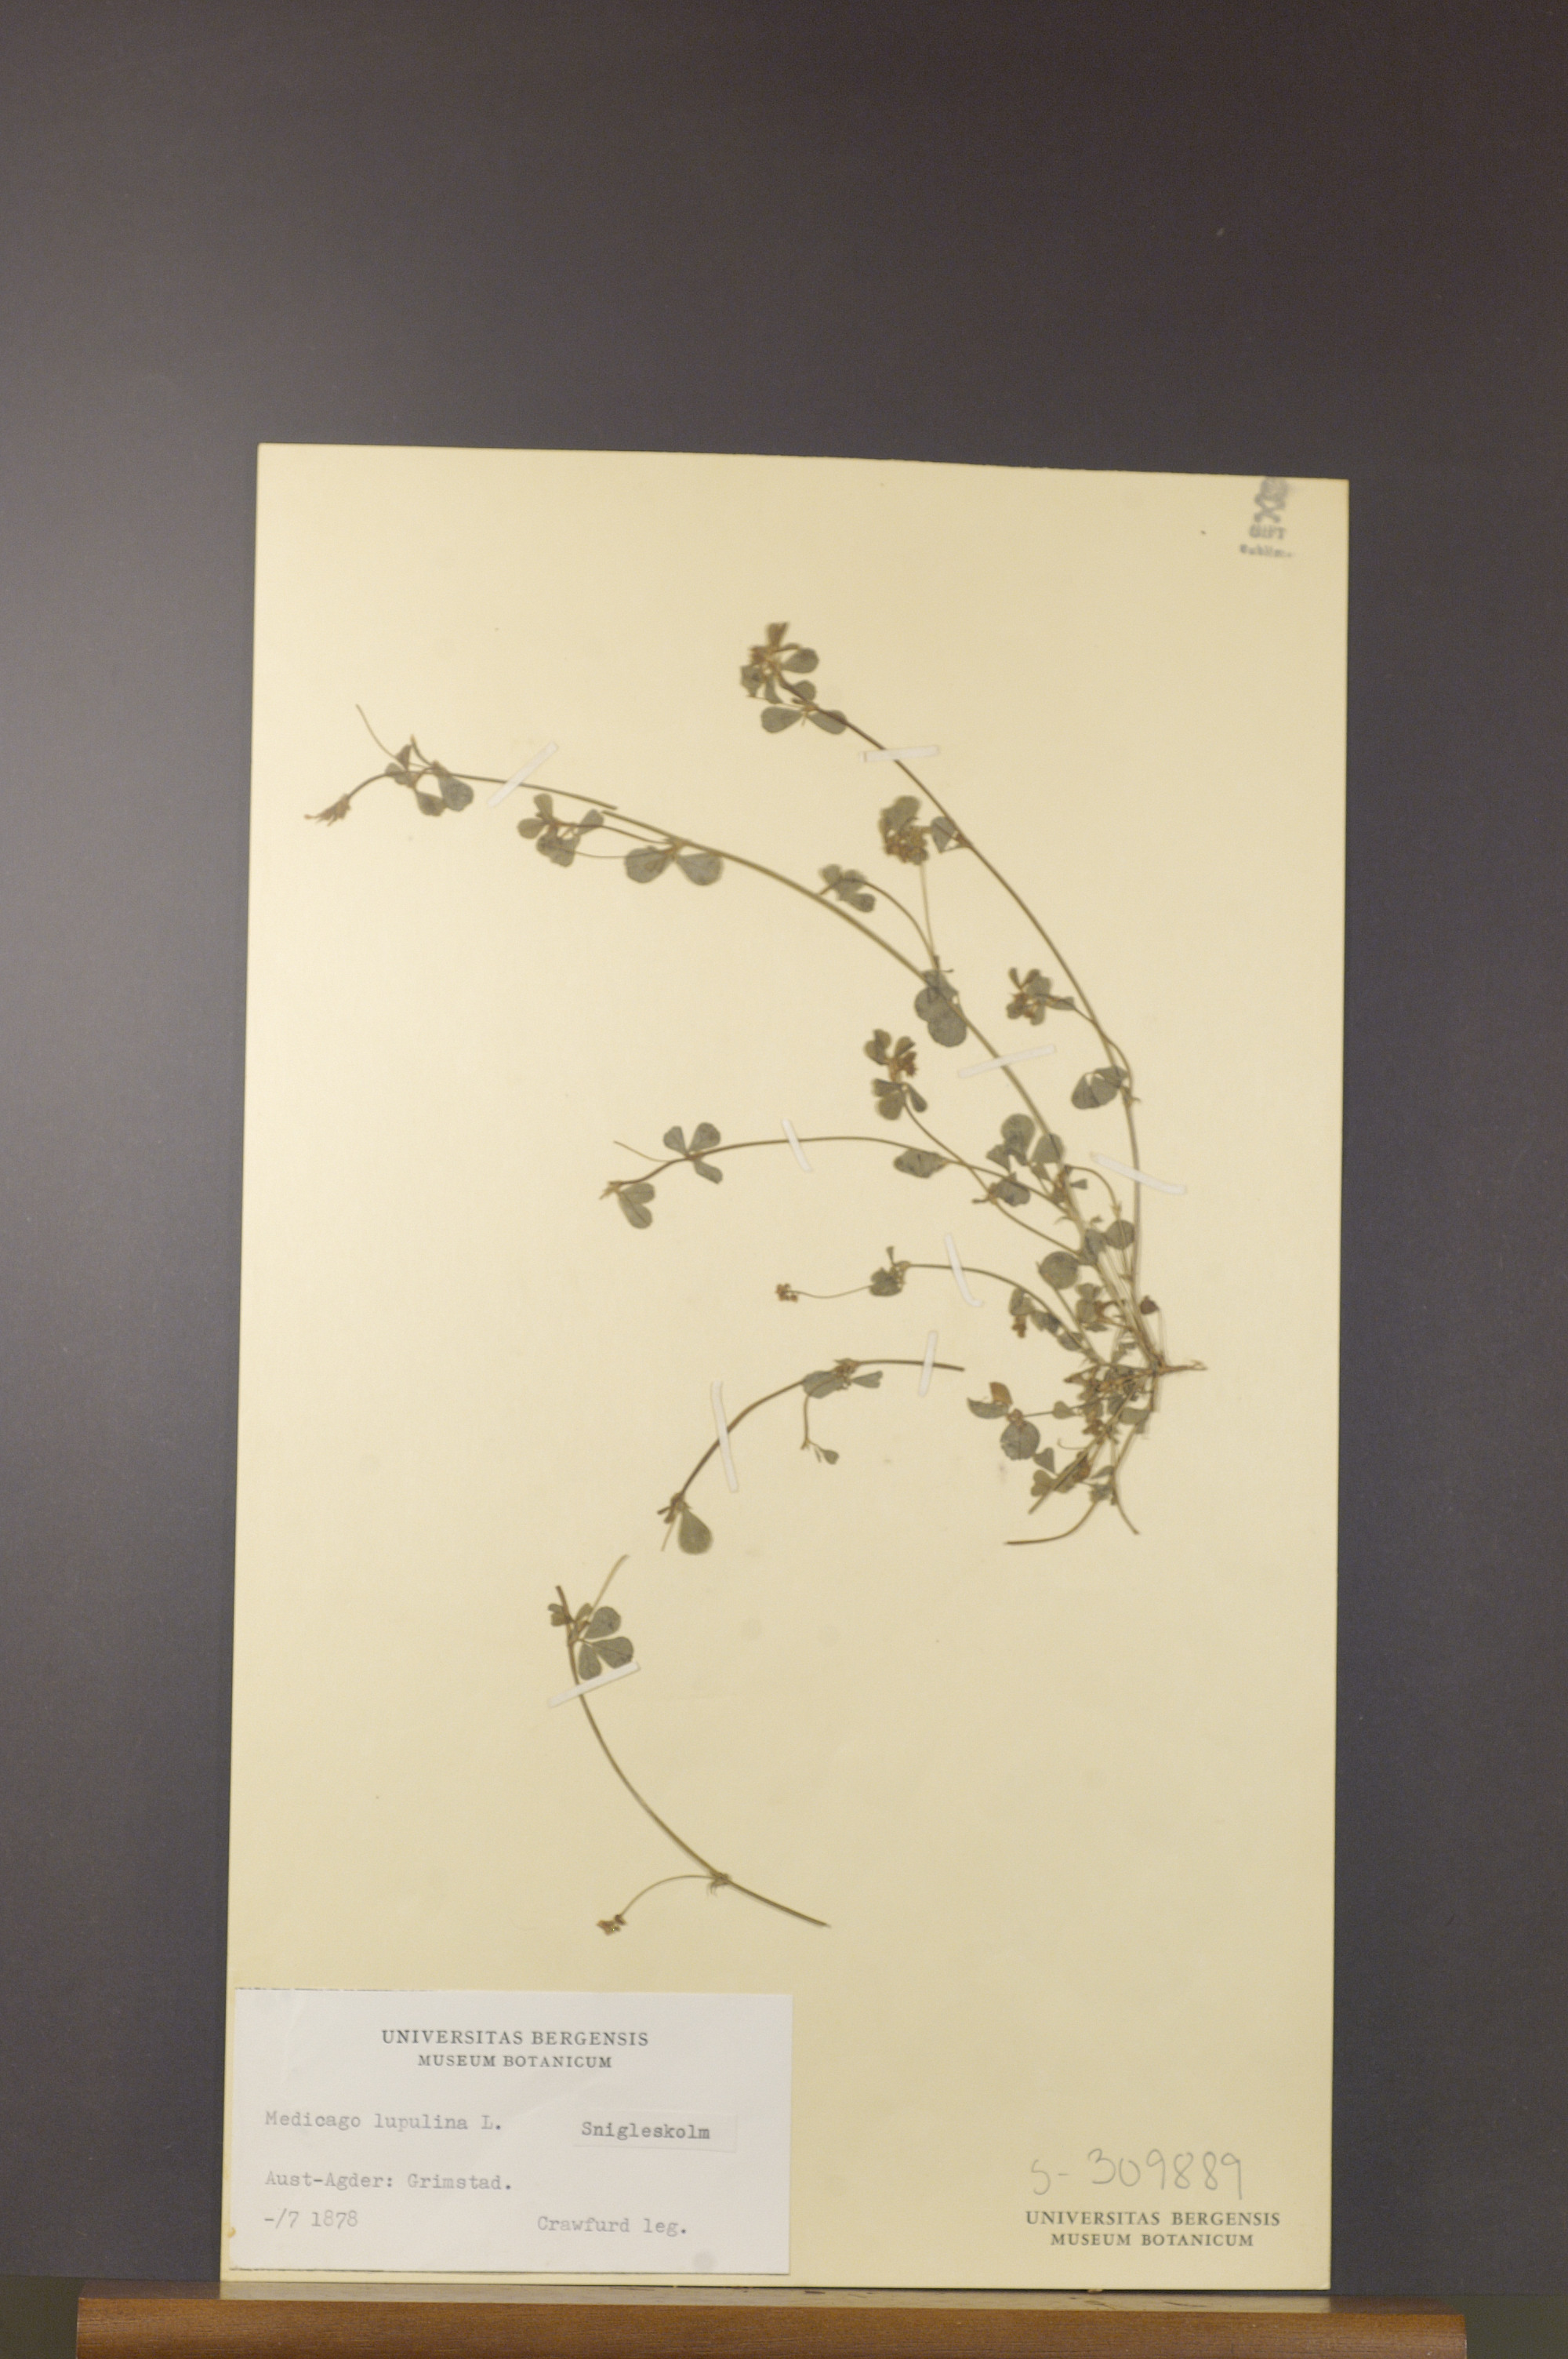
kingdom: Plantae
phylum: Tracheophyta
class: Magnoliopsida
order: Fabales
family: Fabaceae
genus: Medicago
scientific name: Medicago lupulina
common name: Black medick
